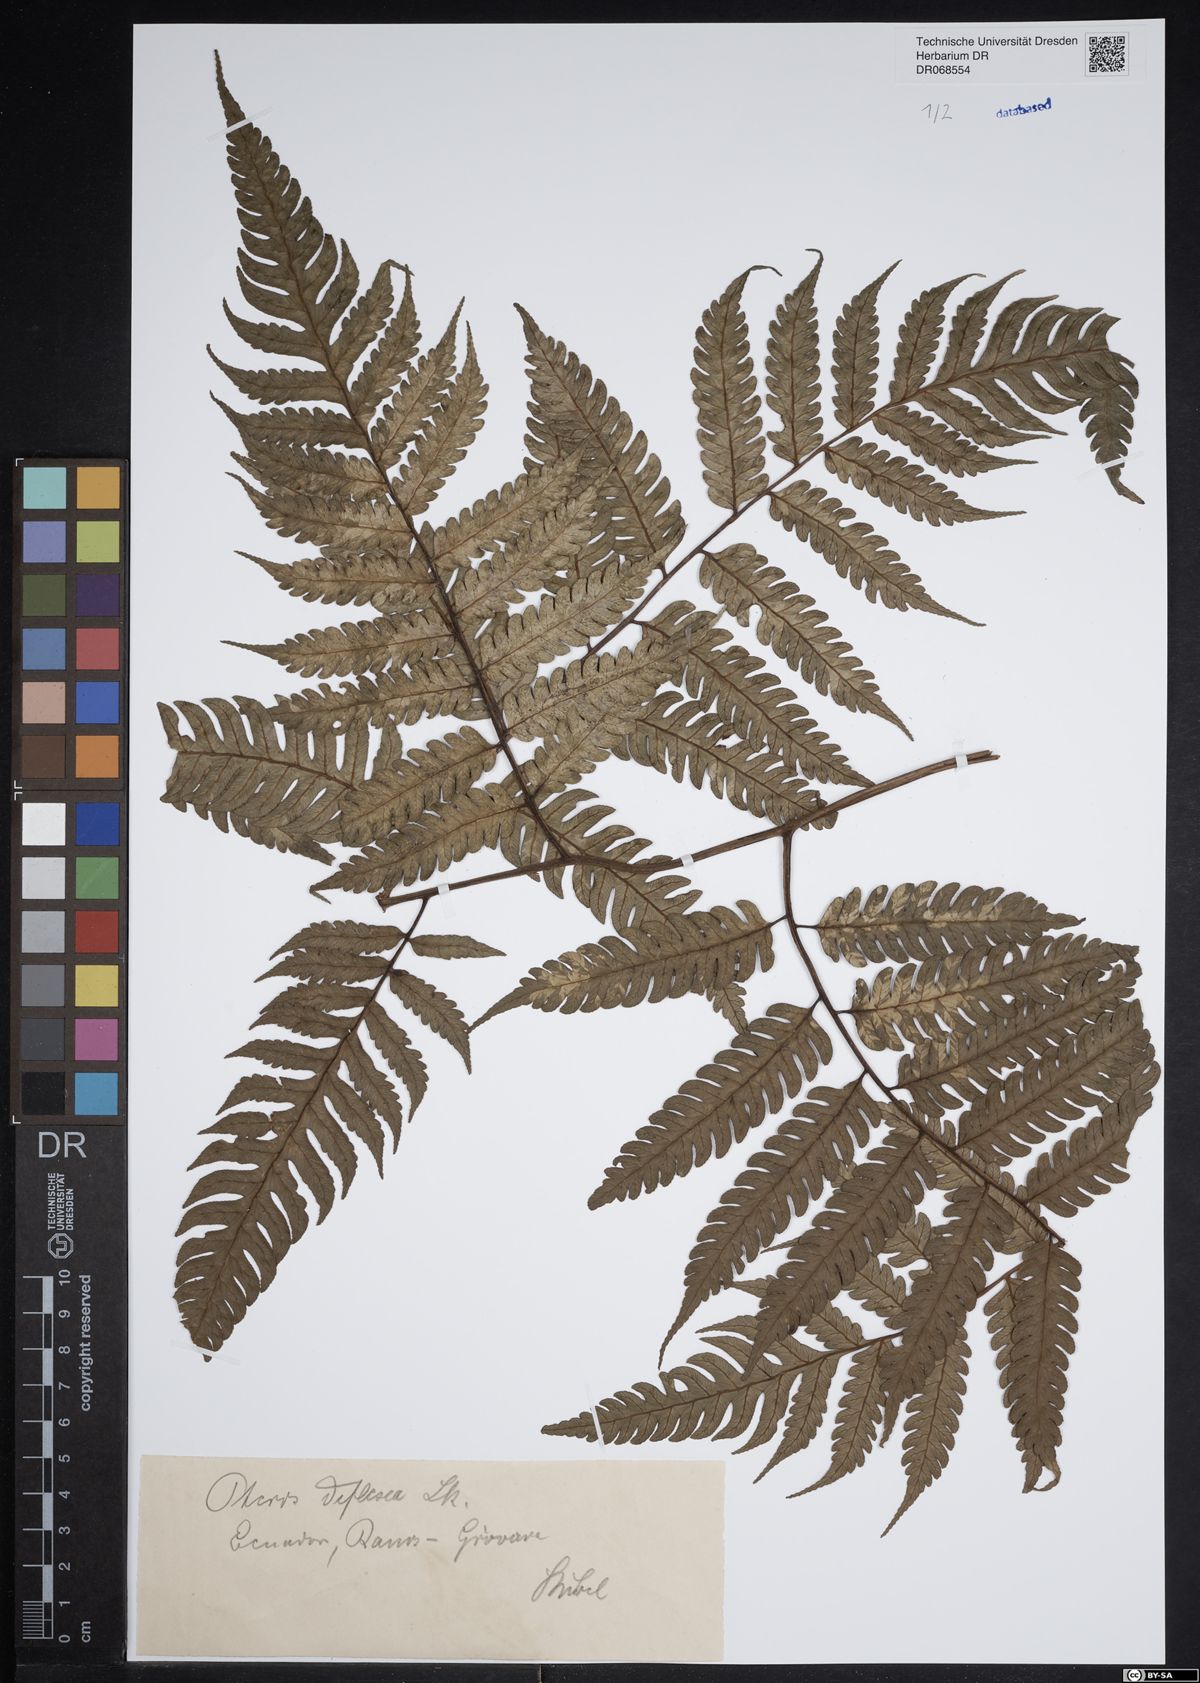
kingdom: Plantae
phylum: Tracheophyta
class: Polypodiopsida
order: Polypodiales
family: Pteridaceae
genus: Pteris
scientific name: Pteris deflexa
